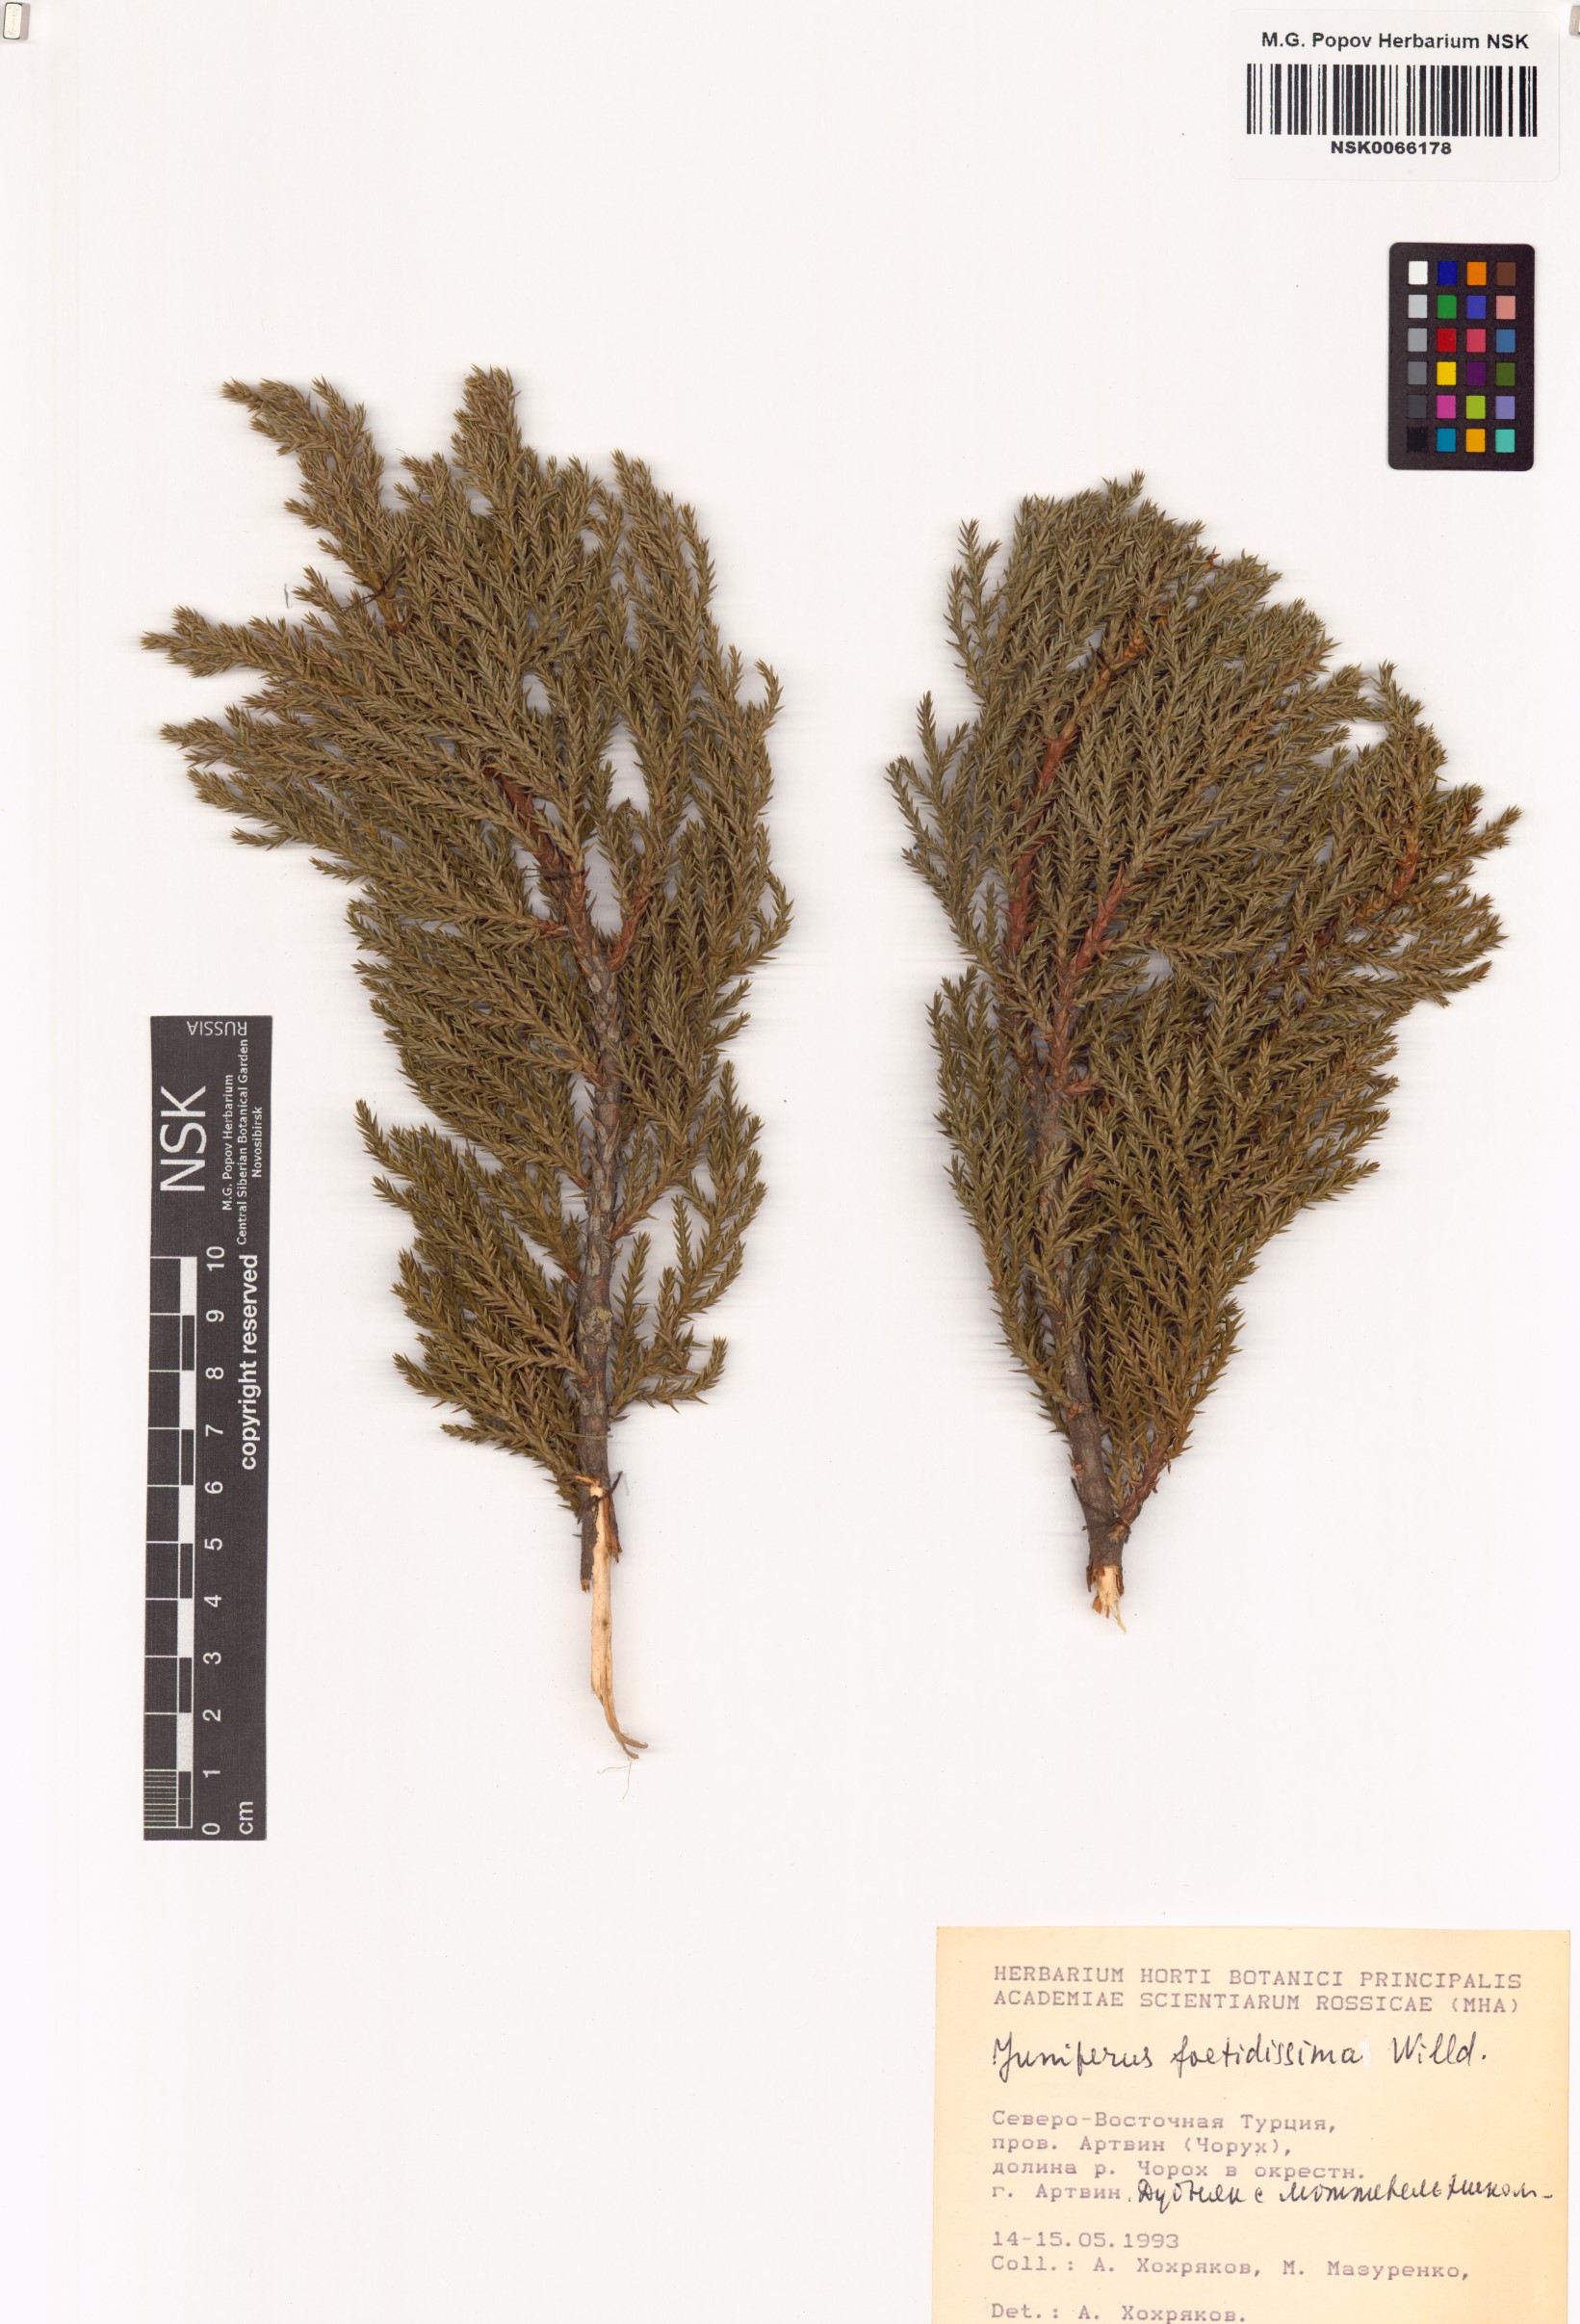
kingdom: Plantae
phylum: Tracheophyta
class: Pinopsida
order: Pinales
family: Cupressaceae
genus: Juniperus
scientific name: Juniperus foetidissima
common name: Stinking juniper
